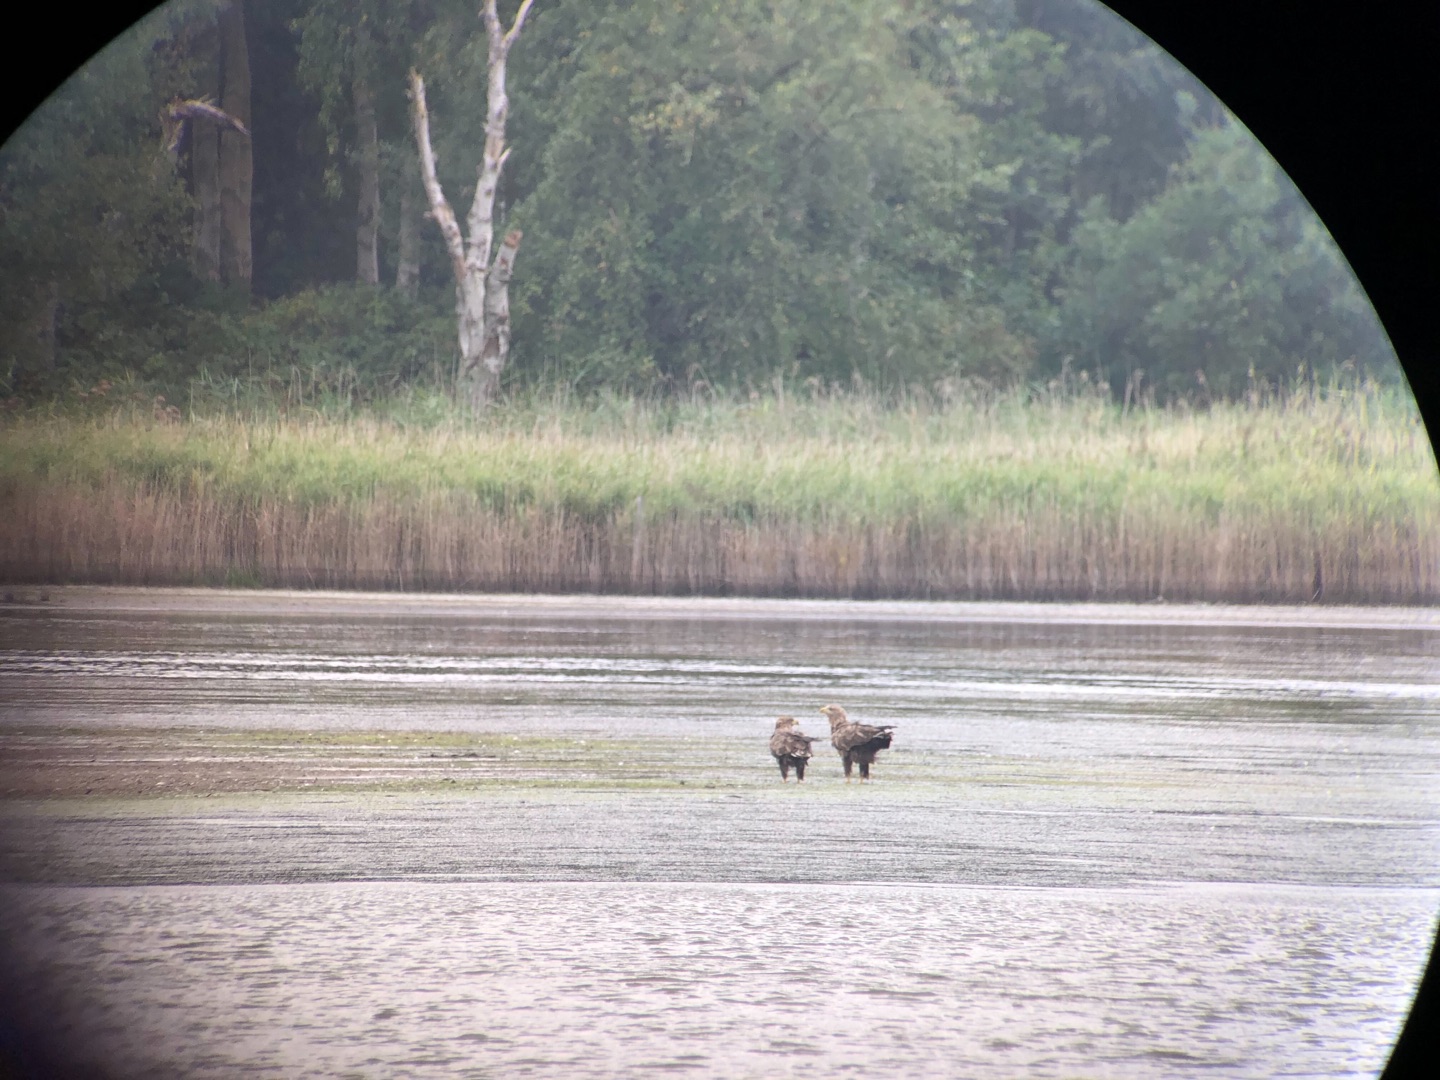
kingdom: Animalia
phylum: Chordata
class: Aves
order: Accipitriformes
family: Accipitridae
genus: Haliaeetus
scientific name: Haliaeetus albicilla
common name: Havørn
